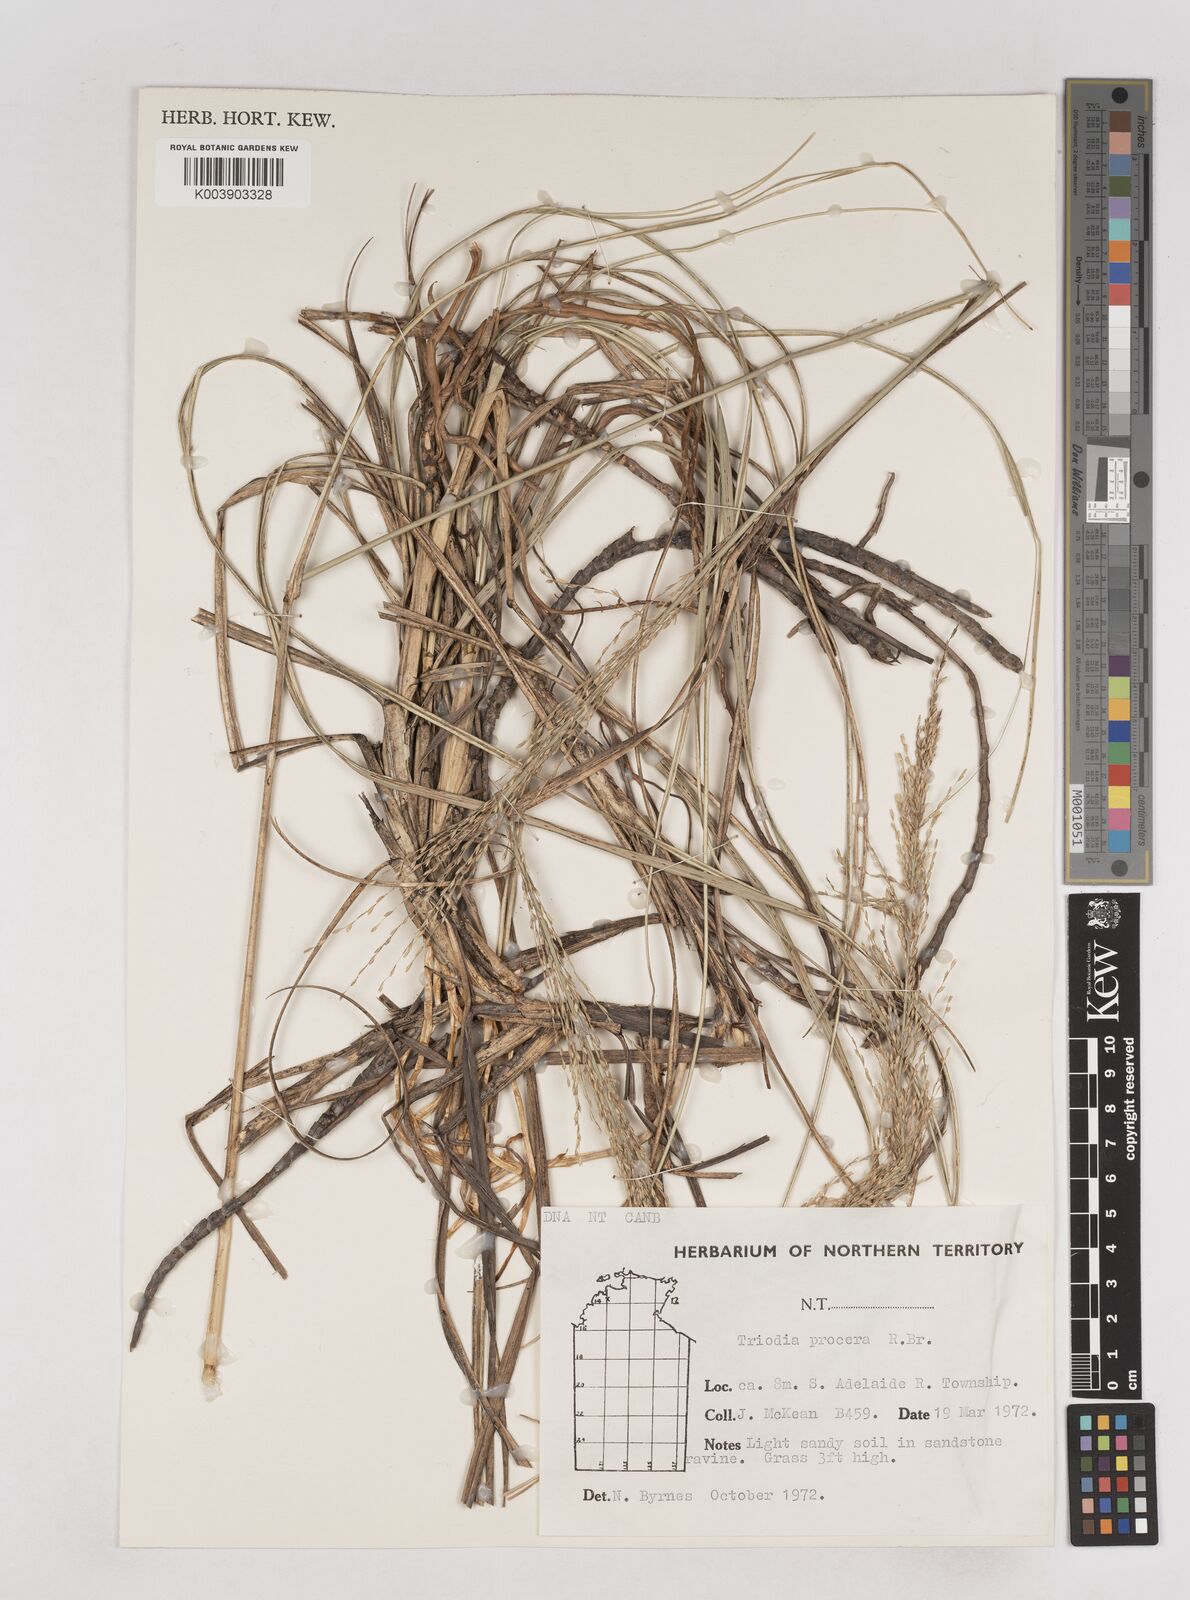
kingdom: Plantae
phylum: Tracheophyta
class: Liliopsida
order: Poales
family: Poaceae
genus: Triodia
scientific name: Triodia procera
